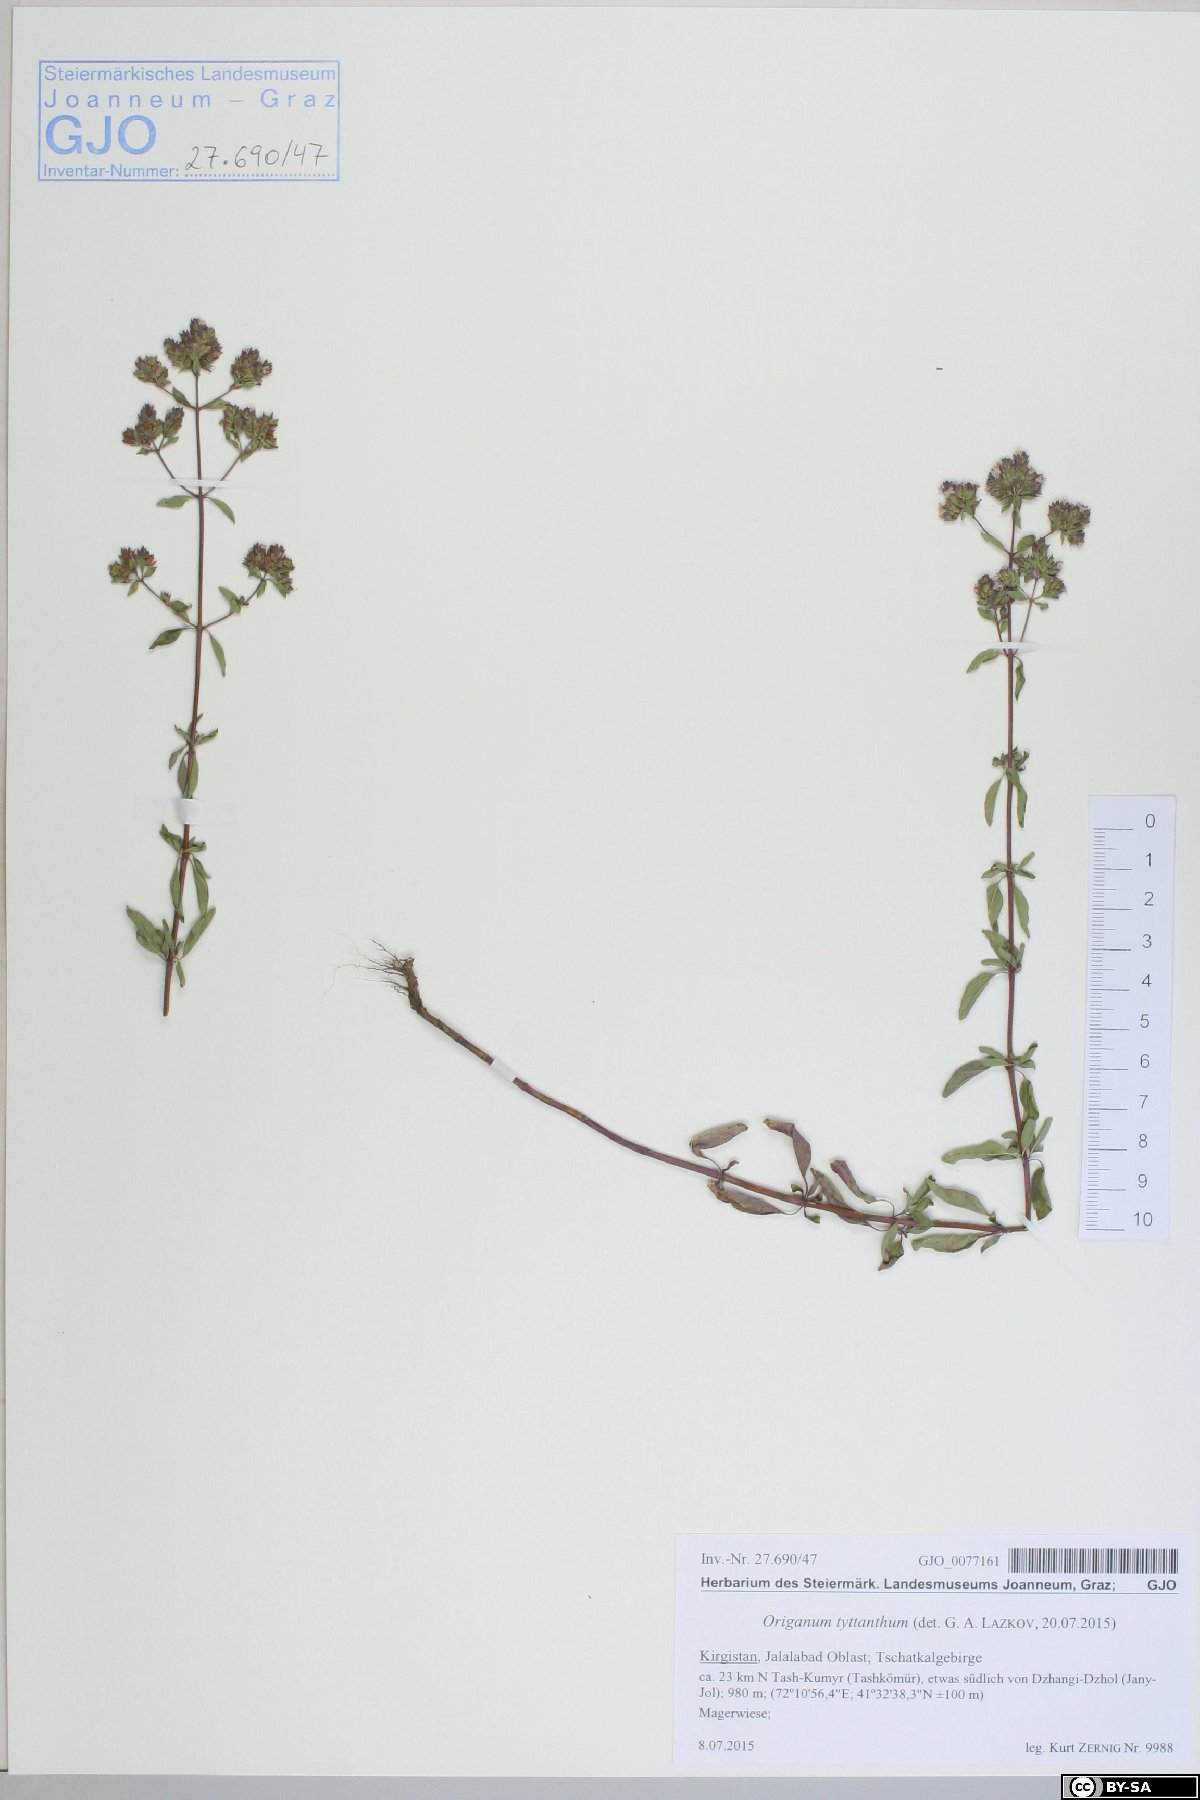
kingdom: Plantae
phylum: Tracheophyta
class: Magnoliopsida
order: Lamiales
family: Lamiaceae
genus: Origanum
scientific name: Origanum vulgare
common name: Wild marjoram
